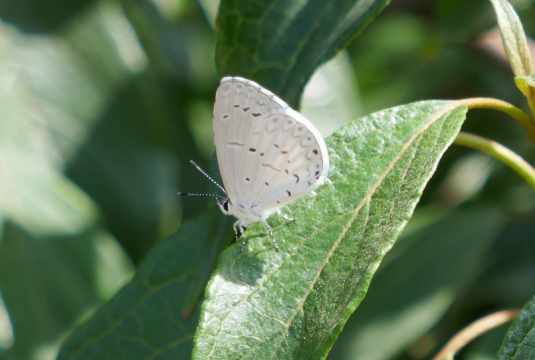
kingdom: Animalia
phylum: Arthropoda
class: Insecta
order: Lepidoptera
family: Lycaenidae
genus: Cyaniris
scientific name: Cyaniris neglecta
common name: Summer Azure
